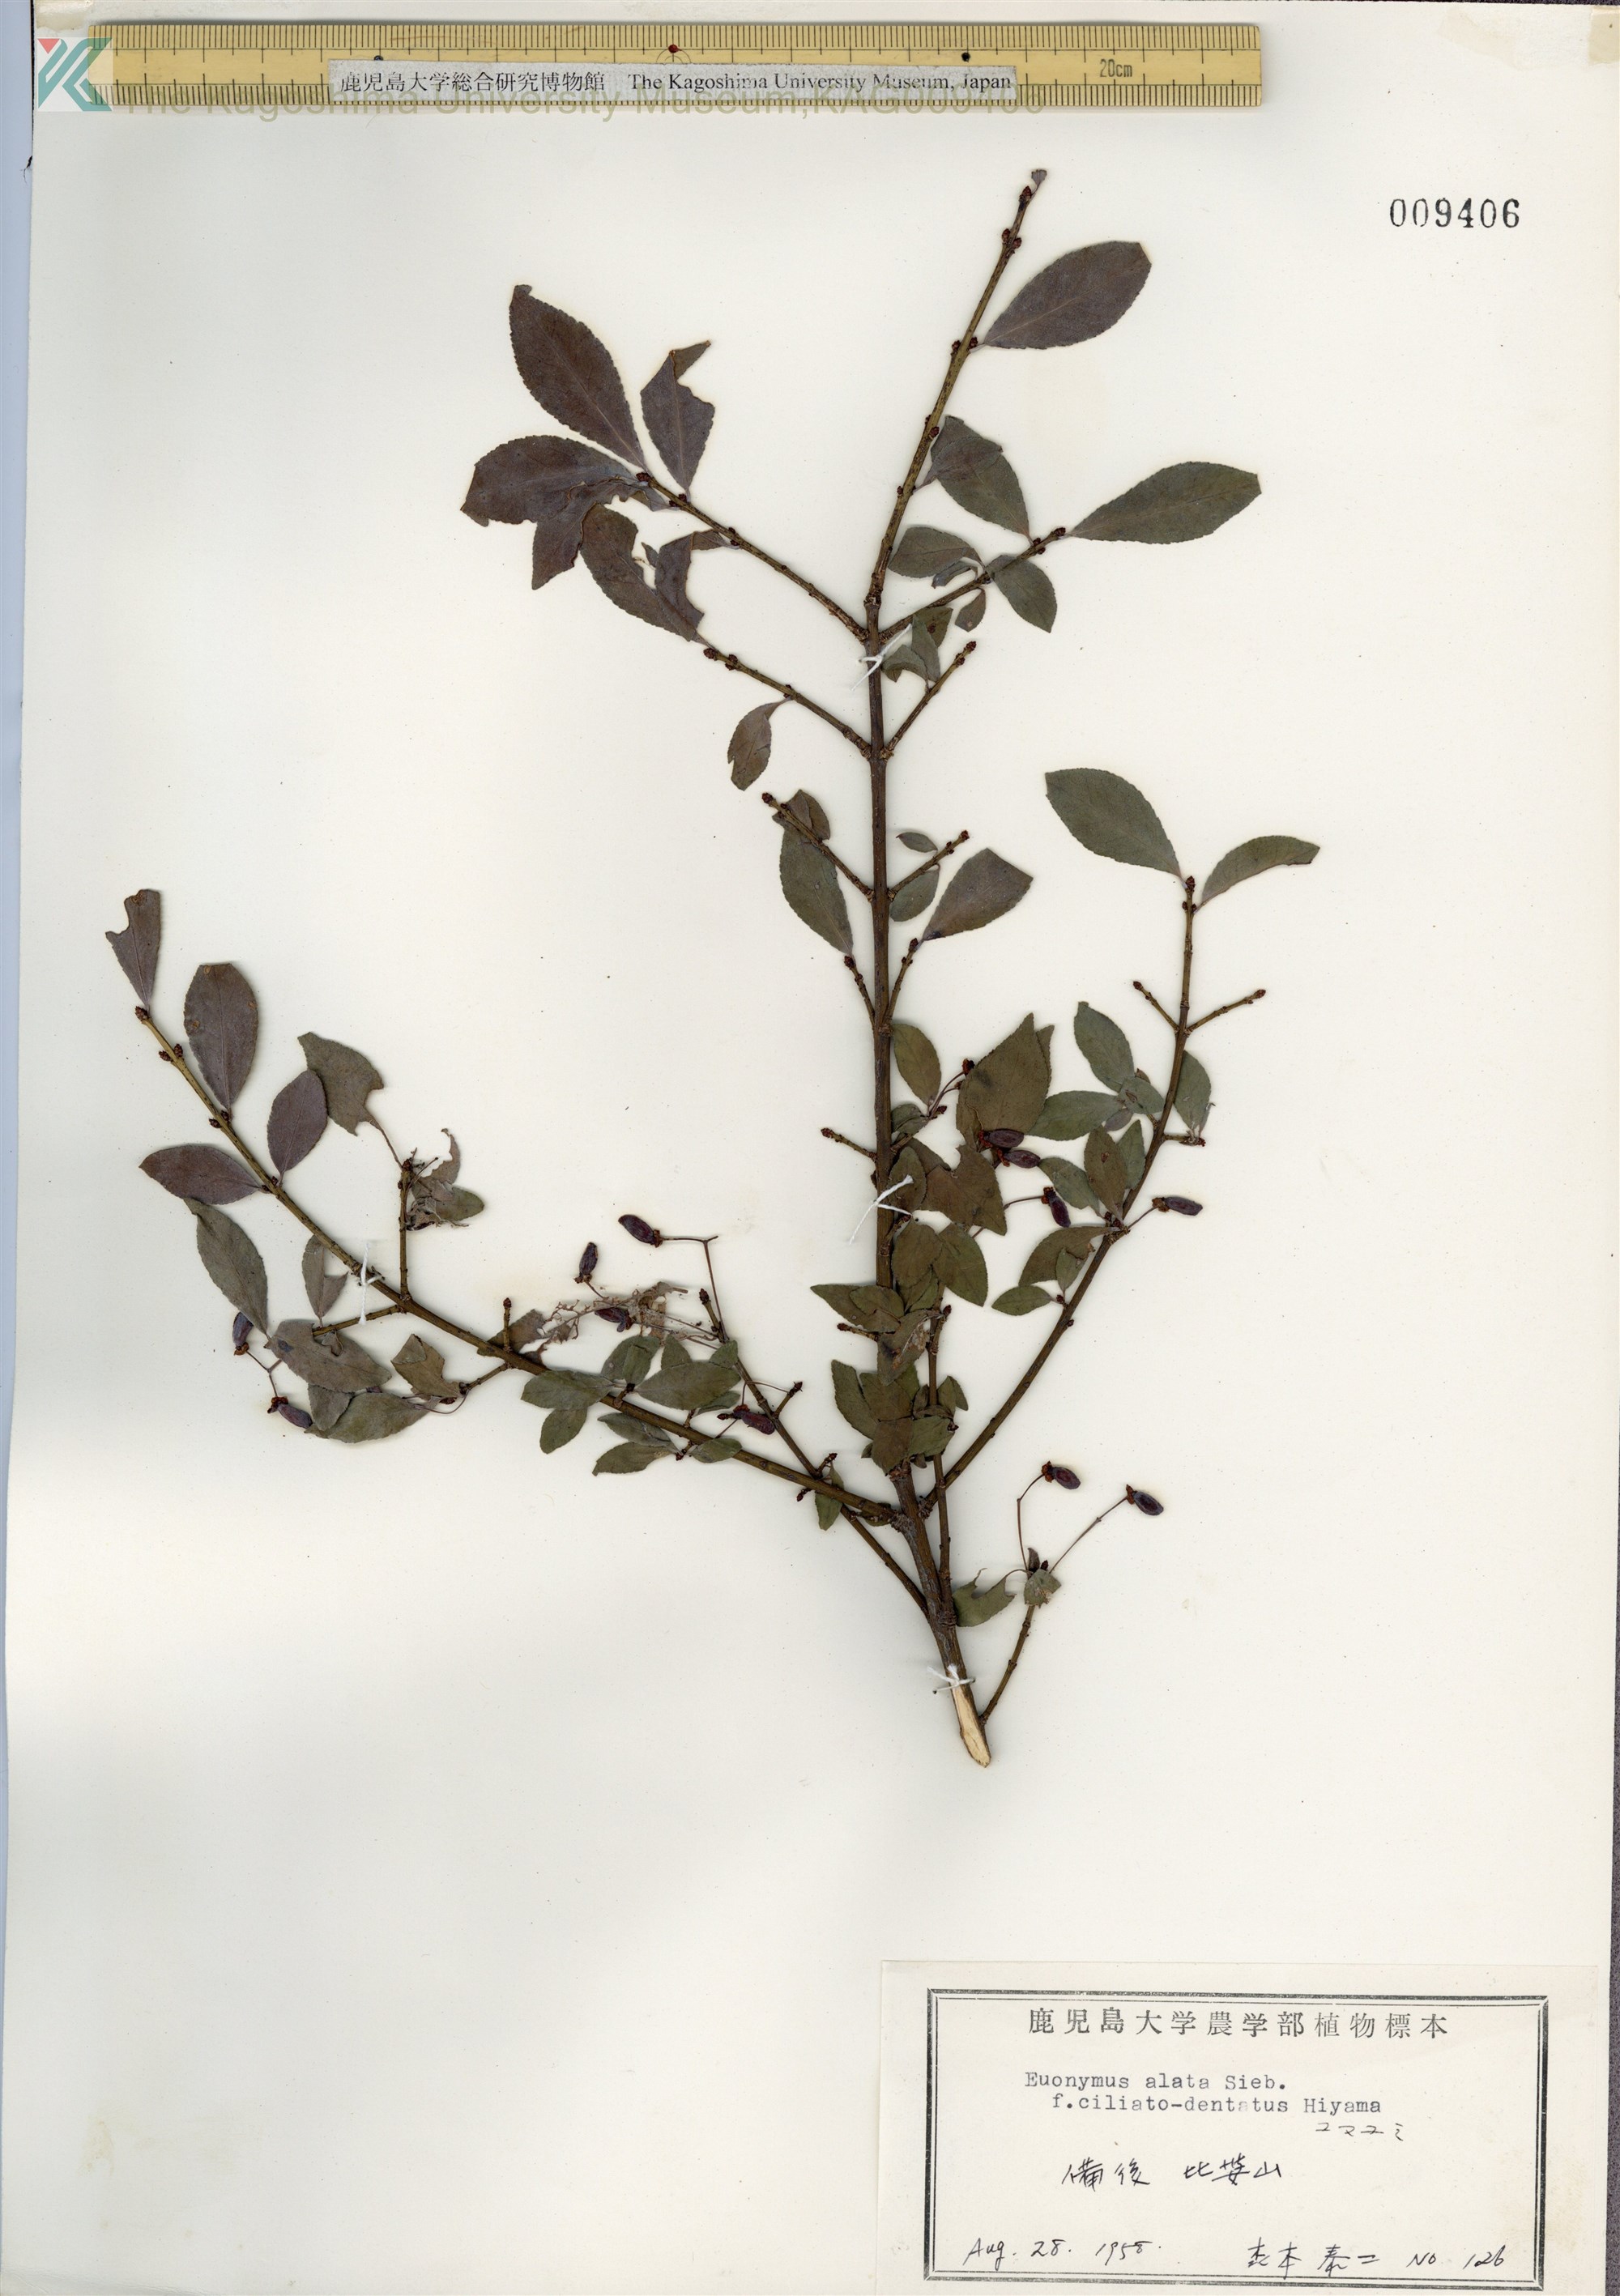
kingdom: Plantae
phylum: Tracheophyta
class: Magnoliopsida
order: Celastrales
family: Celastraceae
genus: Euonymus
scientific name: Euonymus alatus
